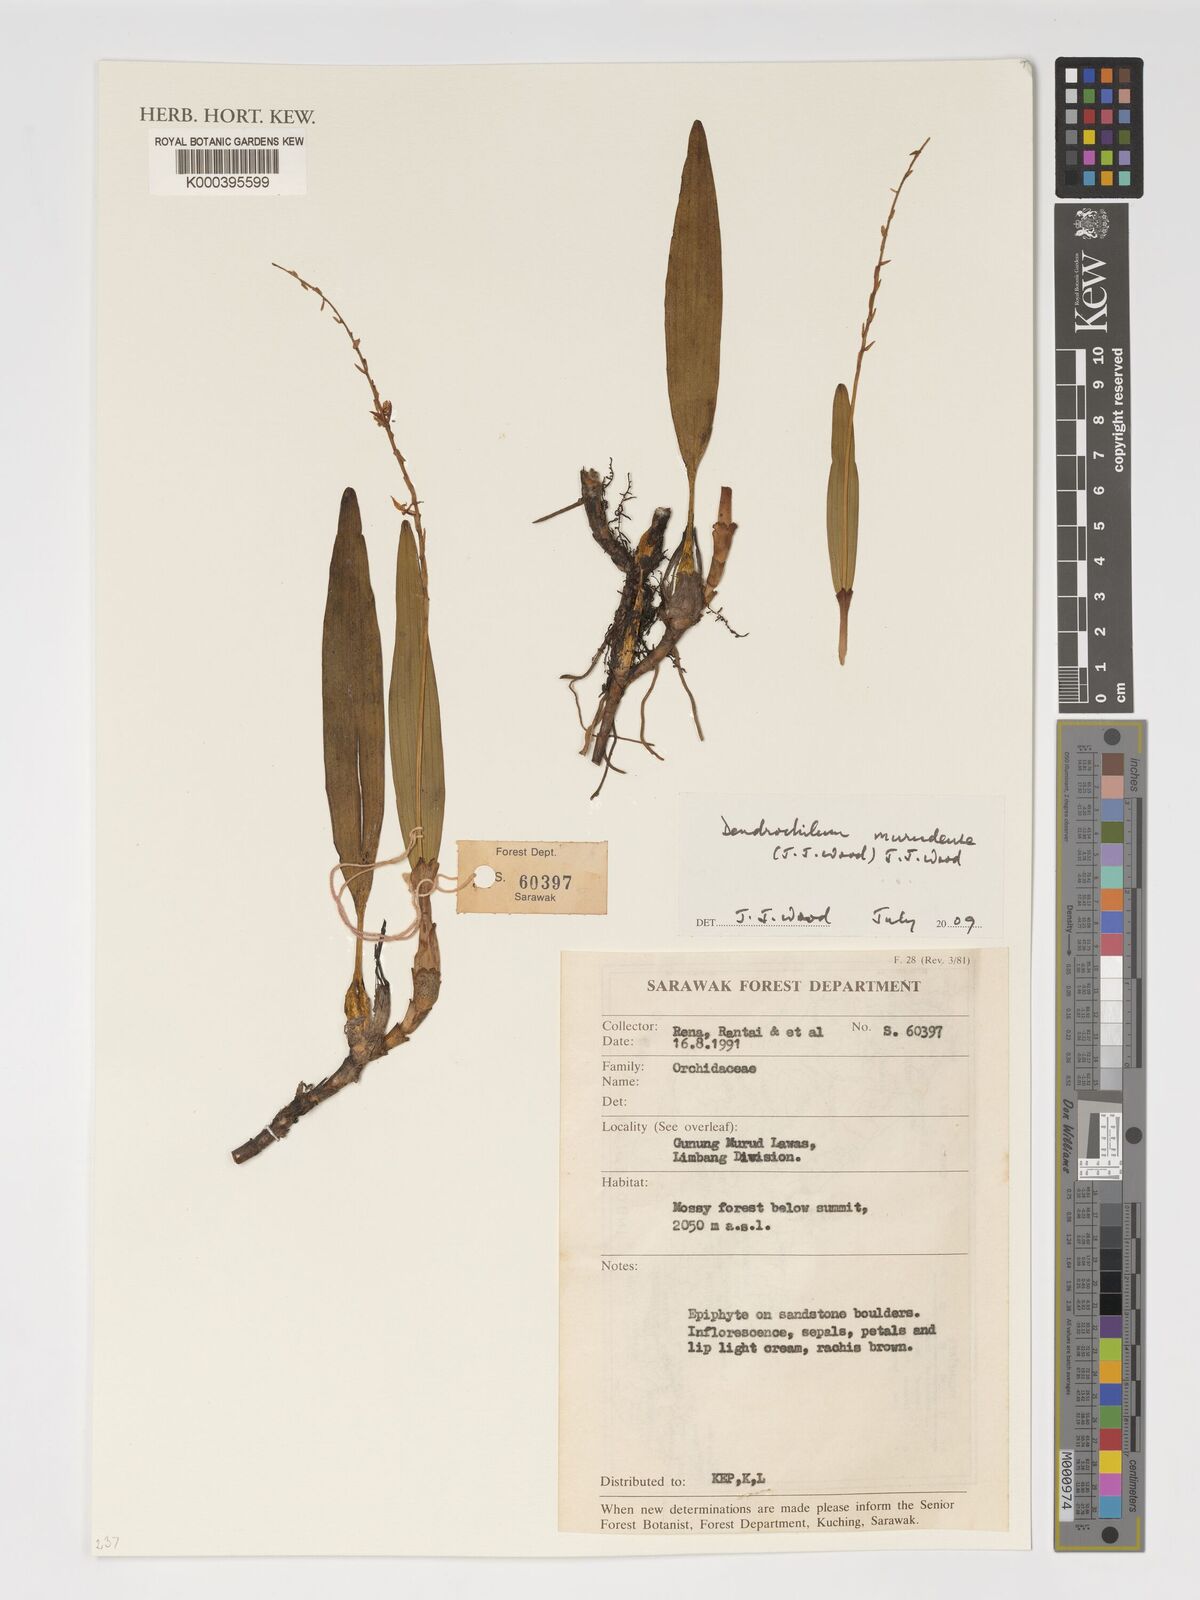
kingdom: Plantae
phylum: Tracheophyta
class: Liliopsida
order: Asparagales
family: Orchidaceae
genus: Coelogyne
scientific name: Coelogyne murudensis
